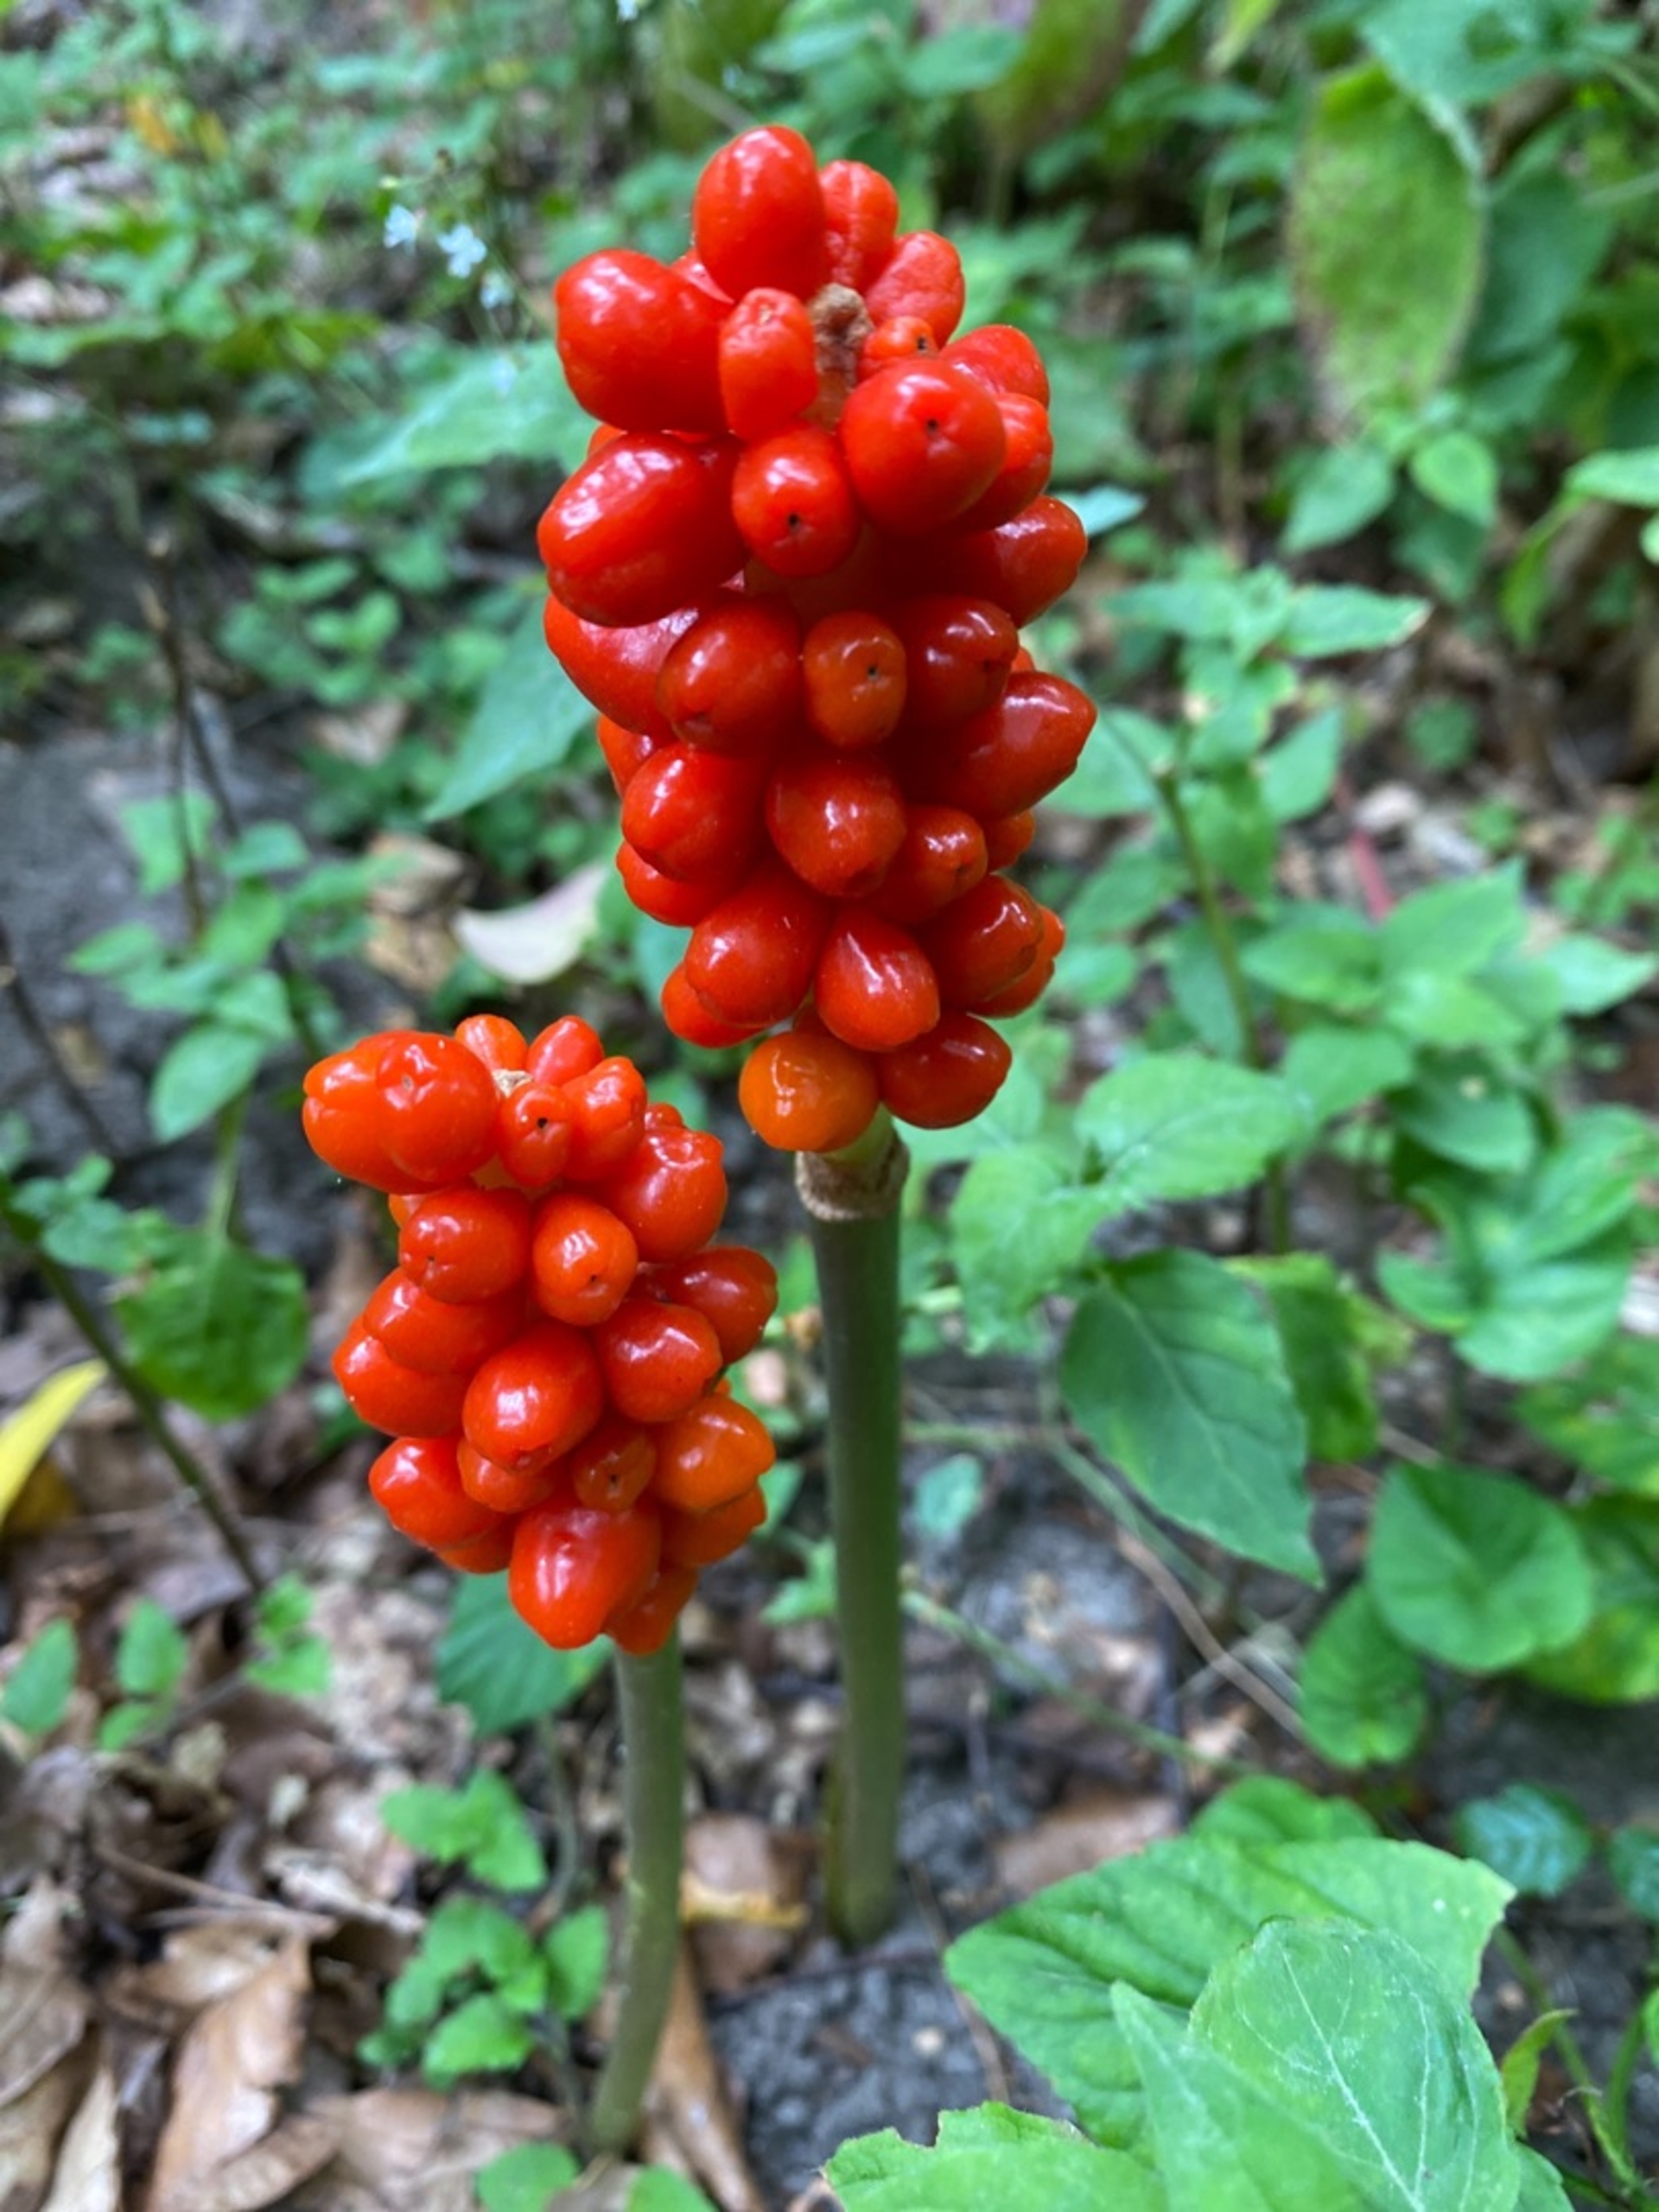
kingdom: Plantae
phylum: Tracheophyta
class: Liliopsida
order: Alismatales
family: Araceae
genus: Arum
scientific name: Arum
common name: Arumslægten
